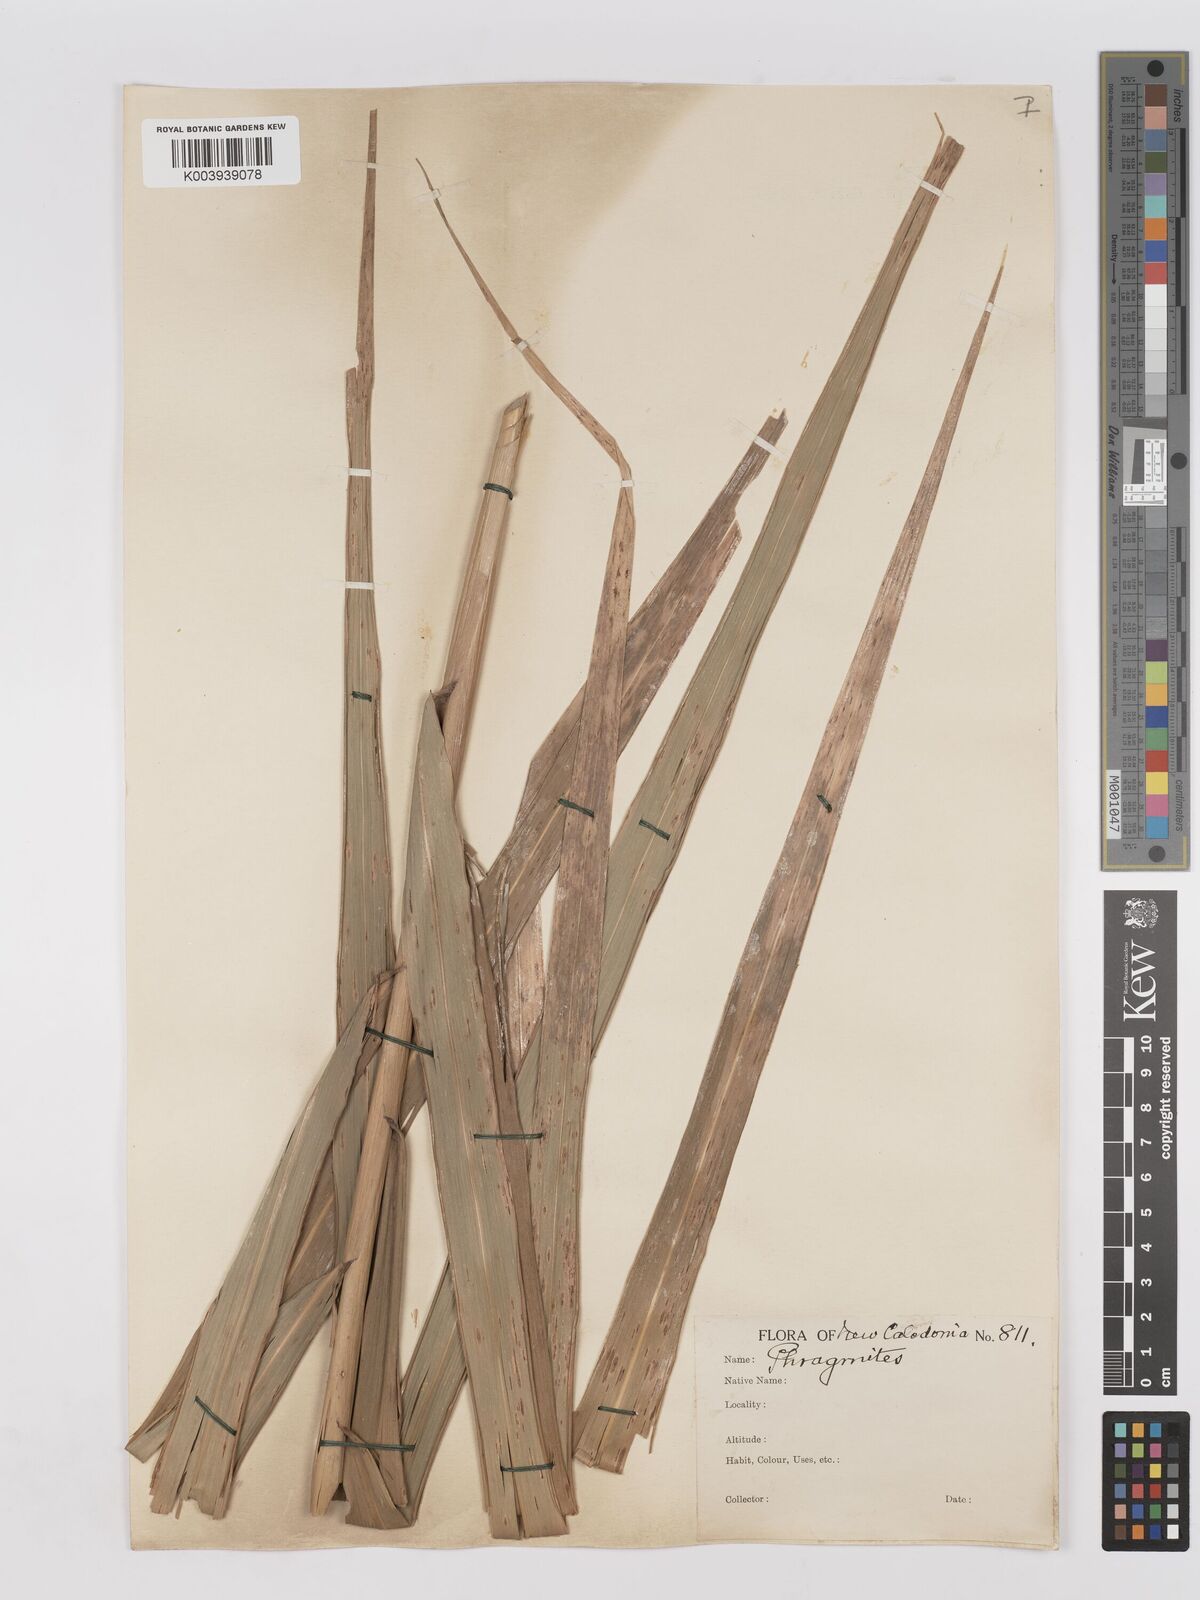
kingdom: Plantae
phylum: Tracheophyta
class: Liliopsida
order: Poales
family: Poaceae
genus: Phragmites
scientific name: Phragmites karka
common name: Tropical reed
